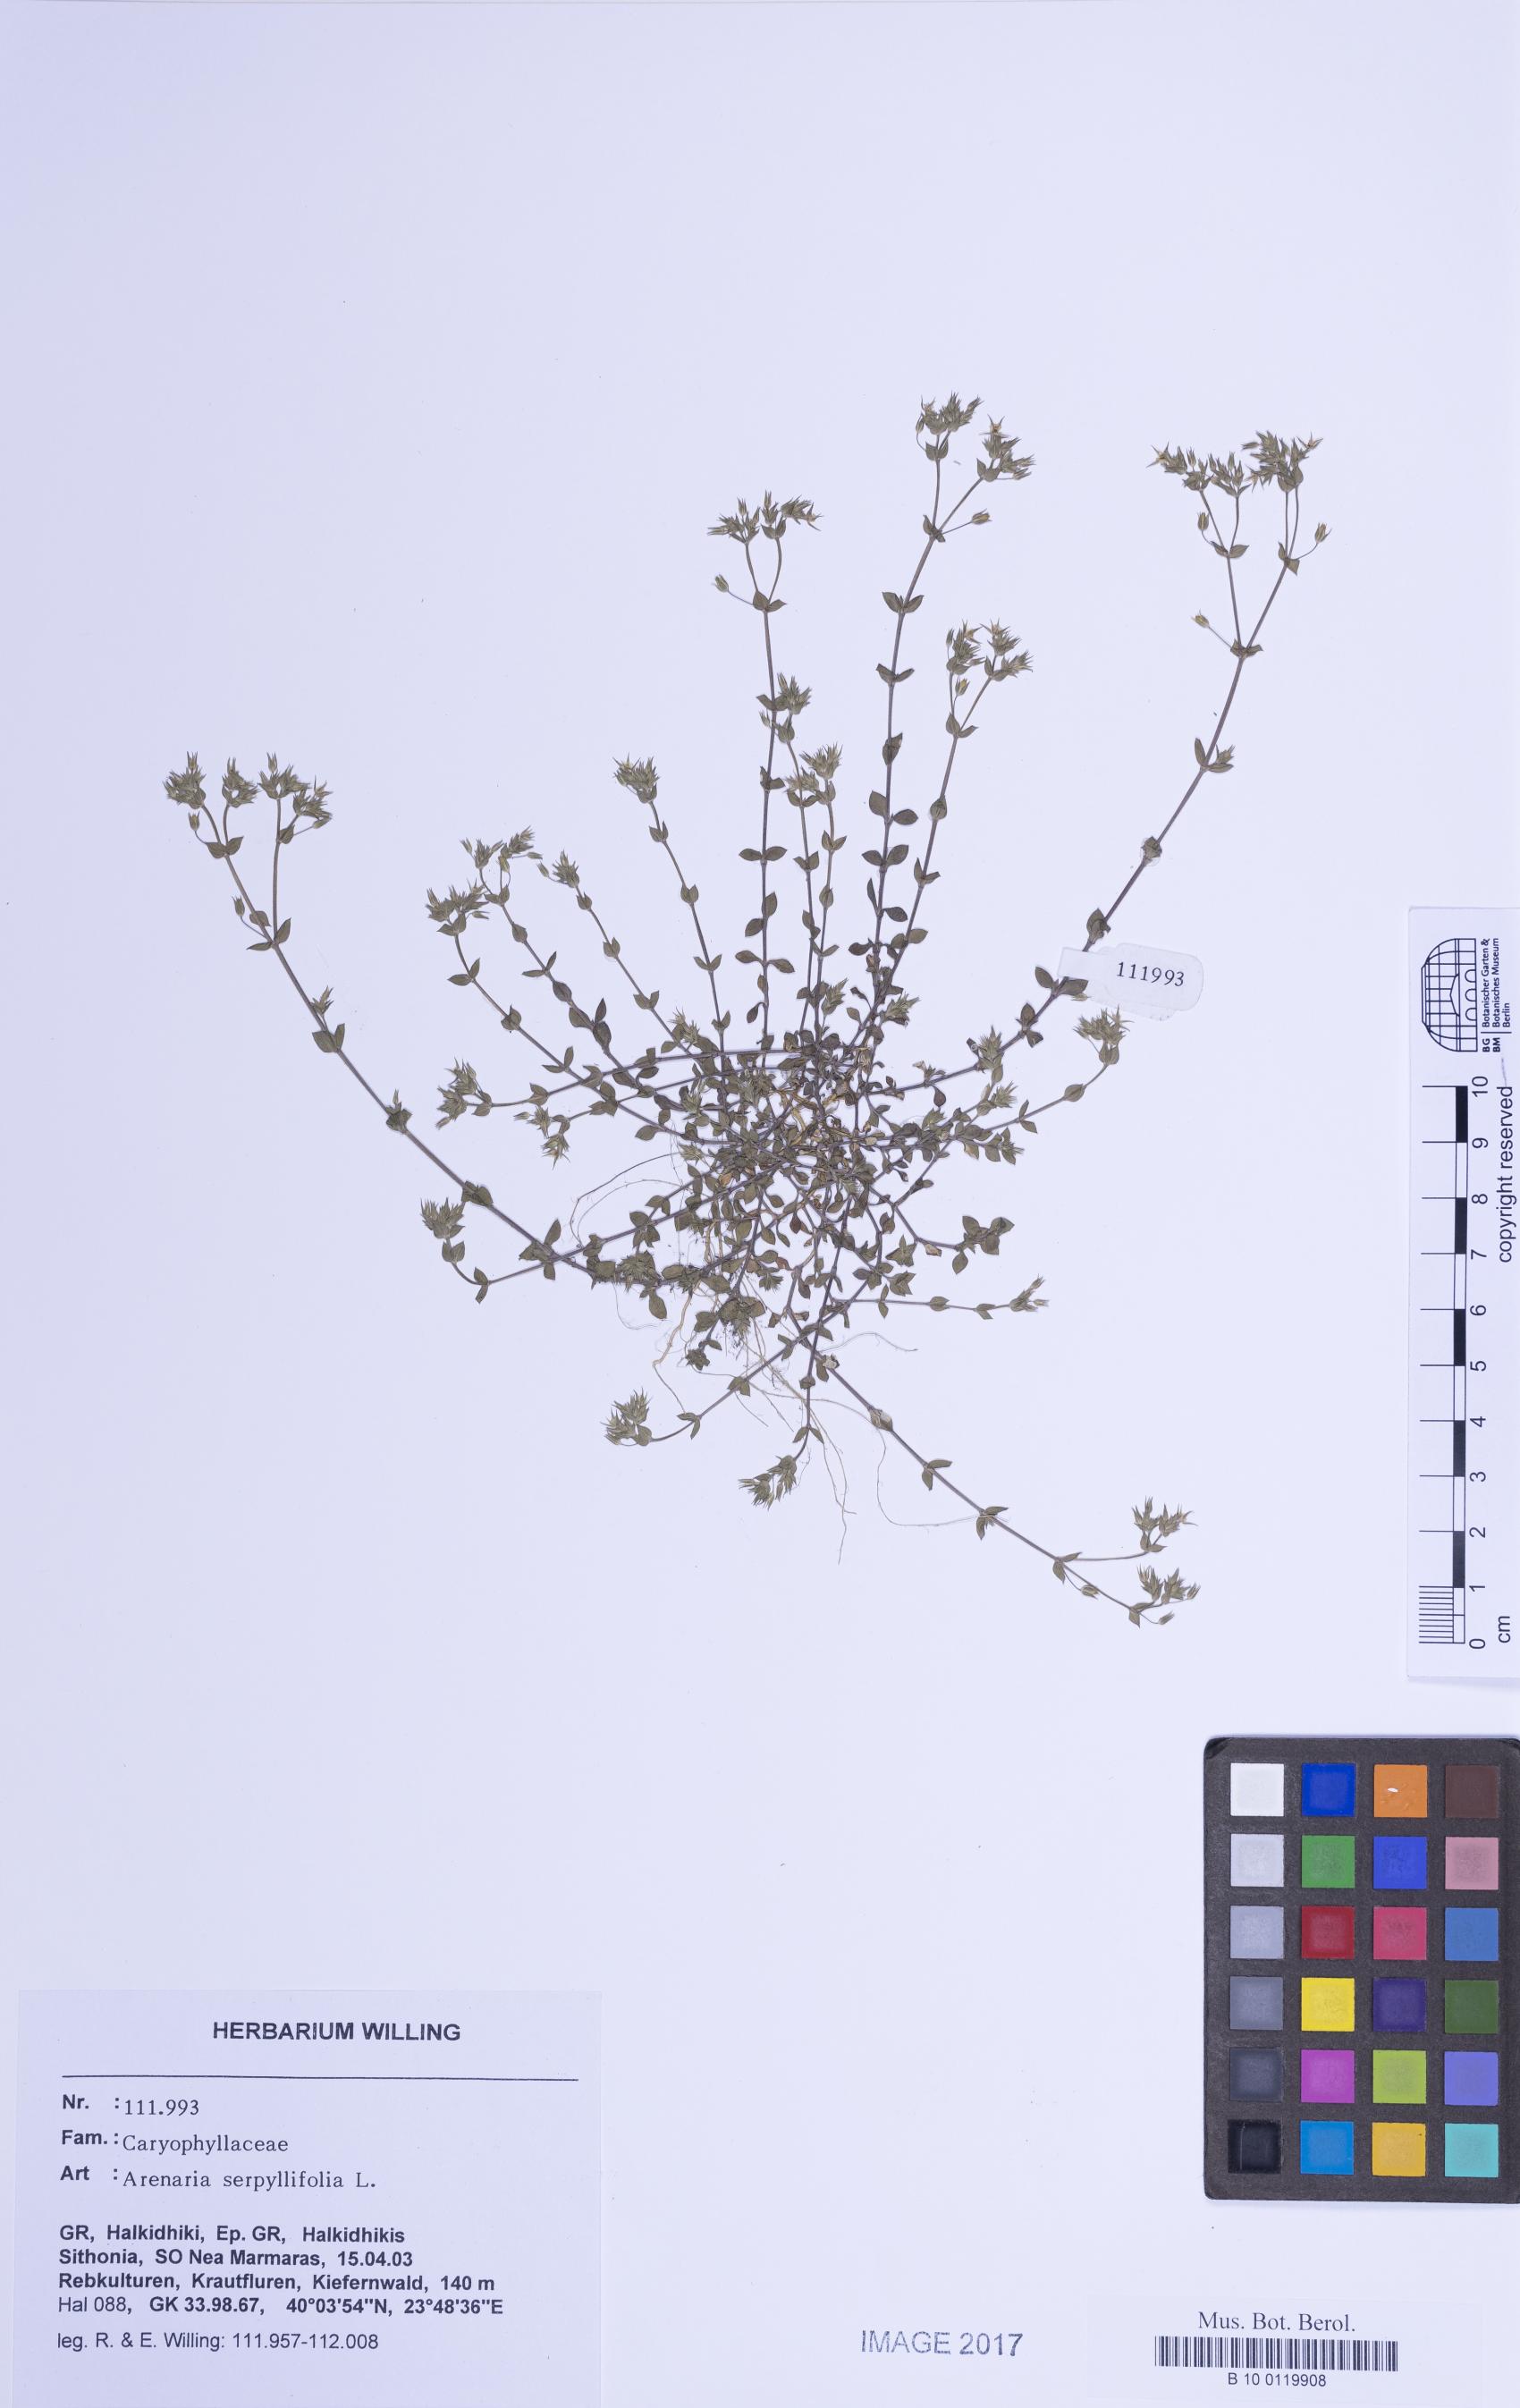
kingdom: Plantae
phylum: Tracheophyta
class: Magnoliopsida
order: Caryophyllales
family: Caryophyllaceae
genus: Arenaria
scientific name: Arenaria serpyllifolia
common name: Thyme-leaved sandwort
